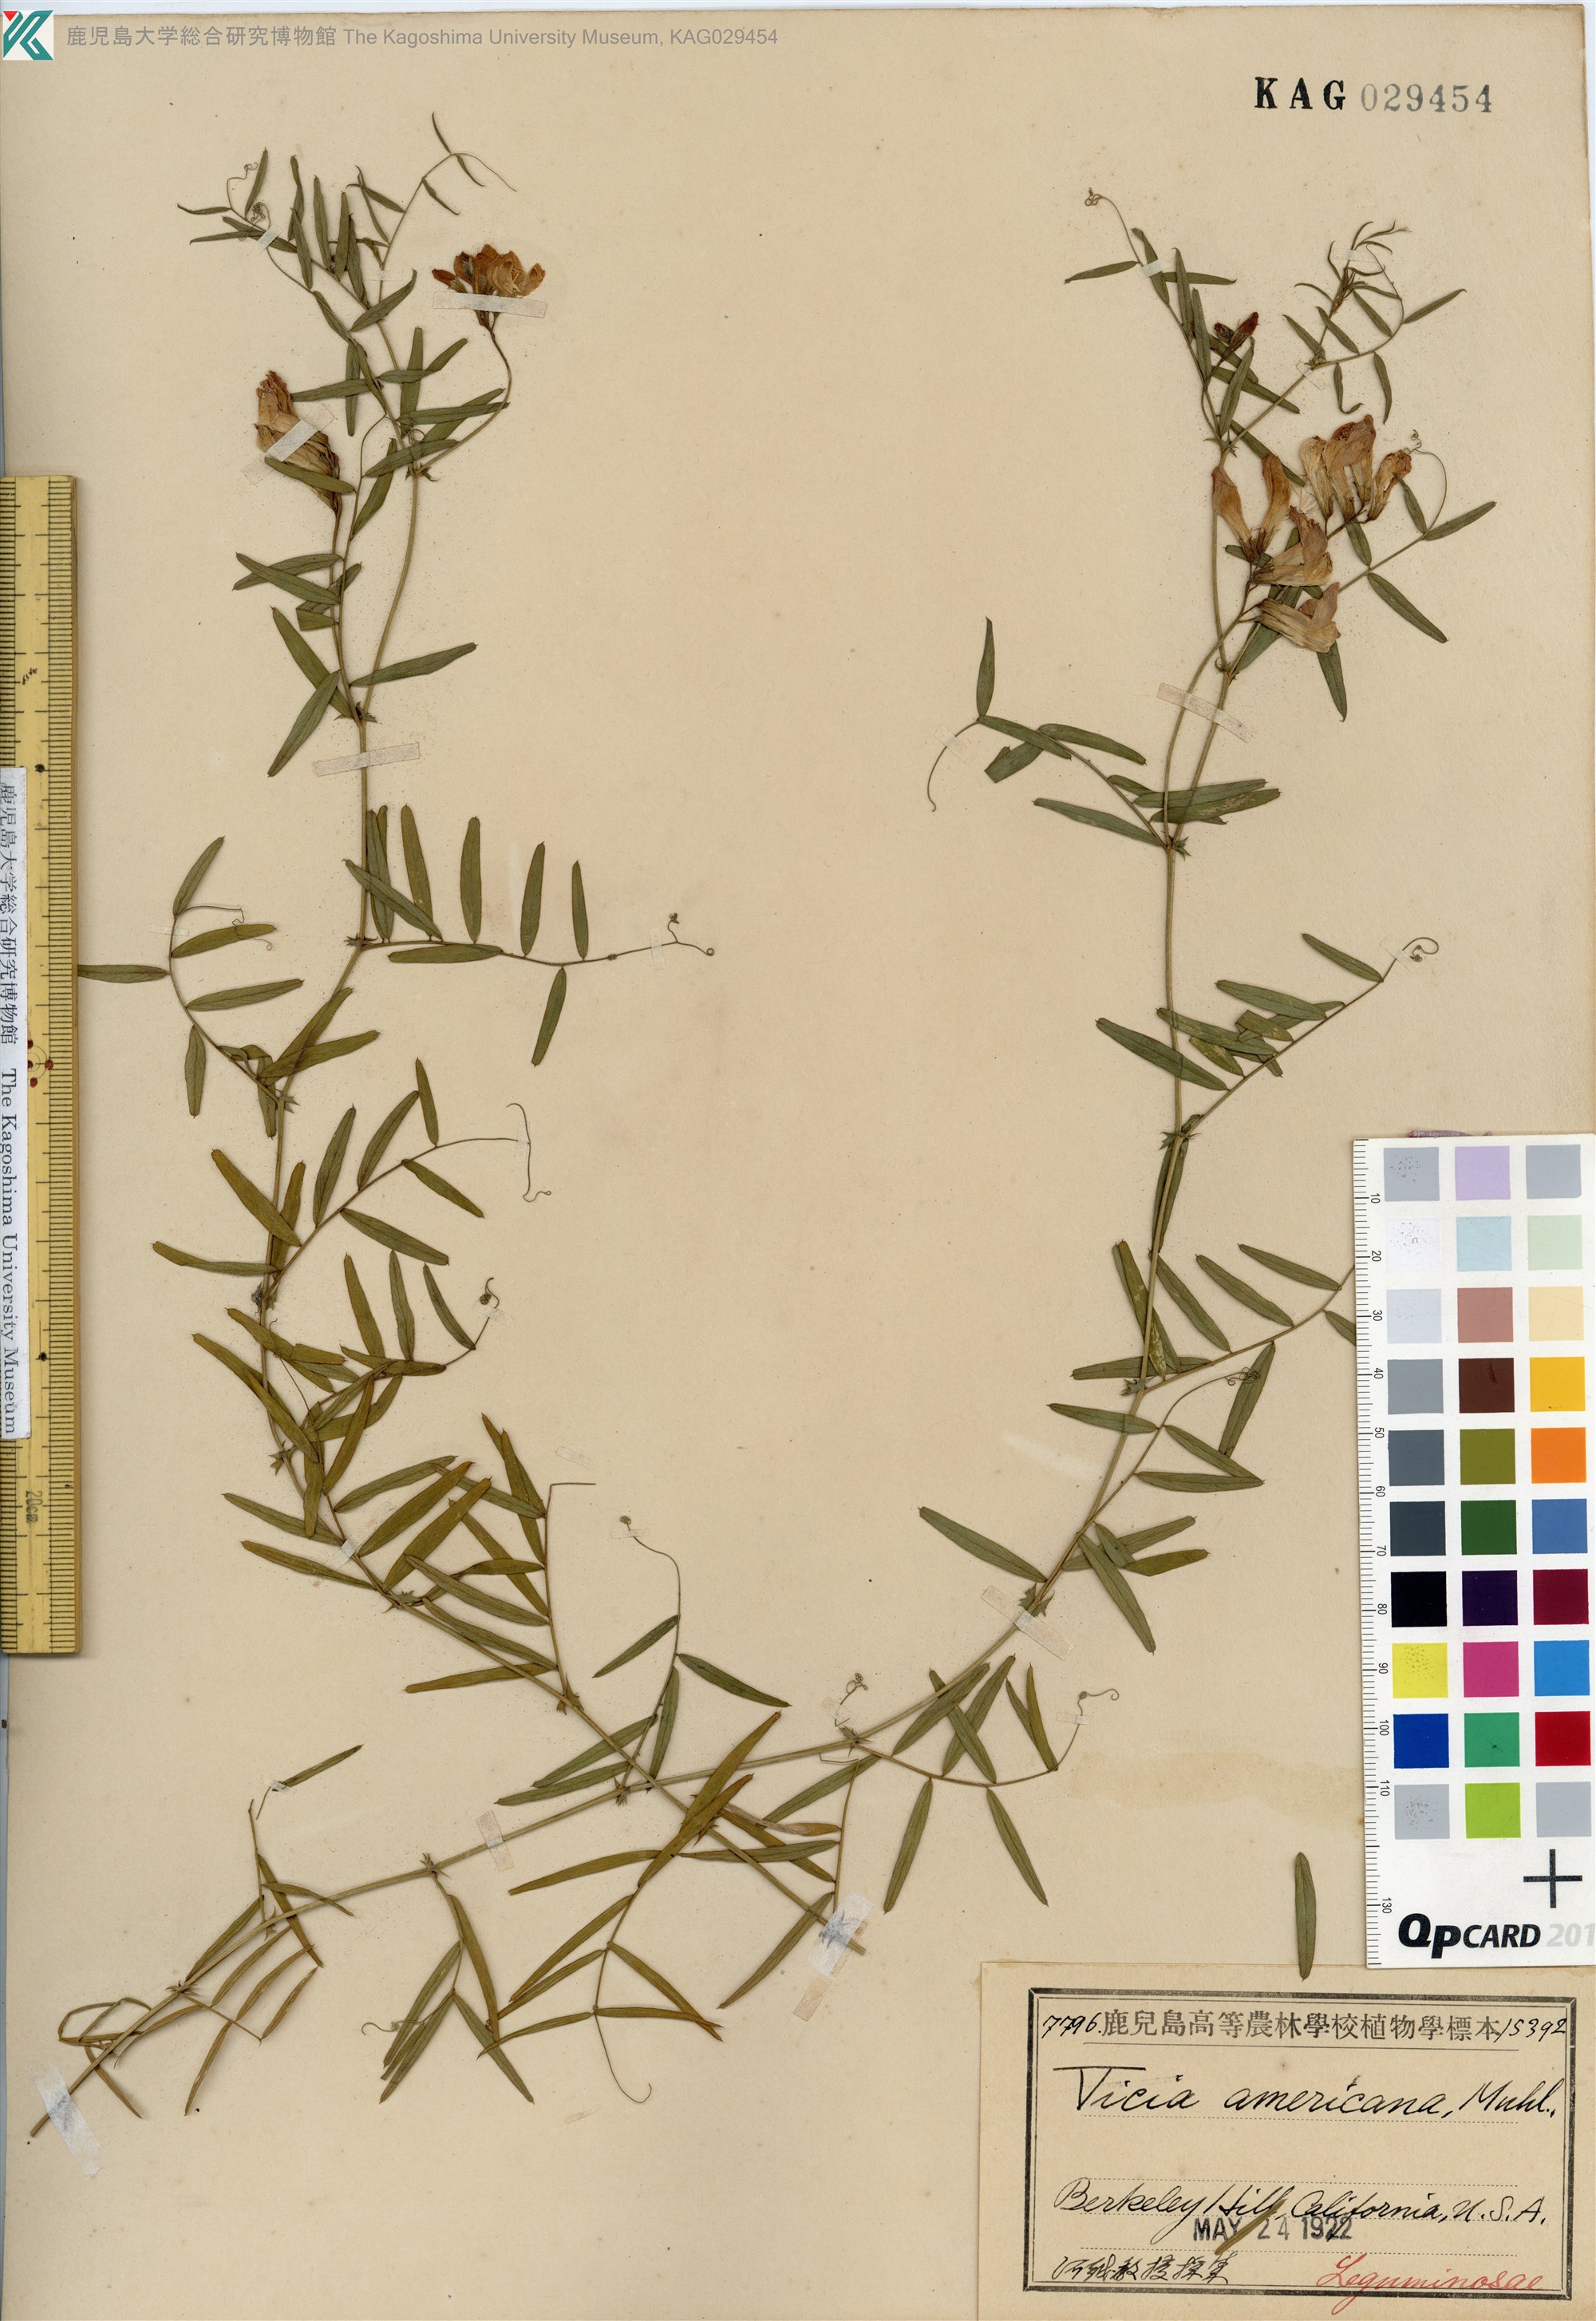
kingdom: Plantae
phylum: Tracheophyta
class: Magnoliopsida
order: Fabales
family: Fabaceae
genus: Vicia
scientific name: Vicia americana
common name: American vetch
